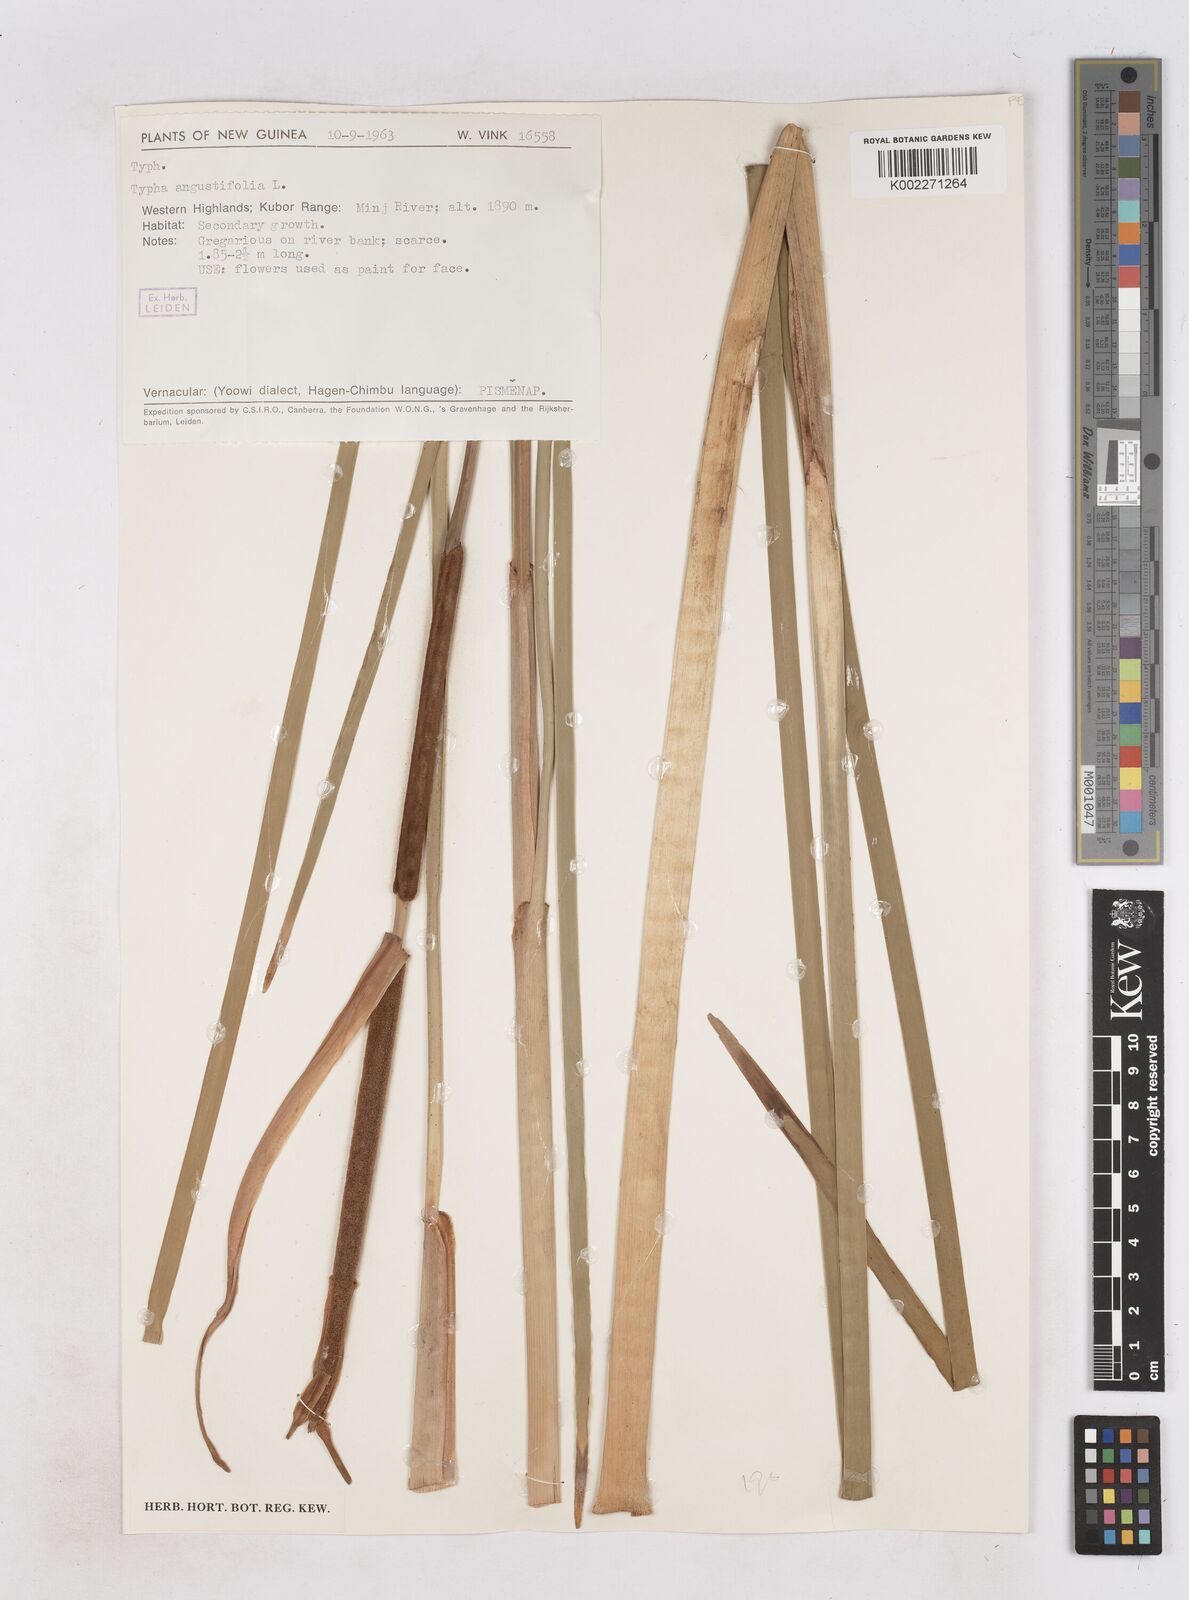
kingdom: Plantae
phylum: Tracheophyta
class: Liliopsida
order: Poales
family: Typhaceae
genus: Typha
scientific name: Typha angustifolia
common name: Lesser bulrush
